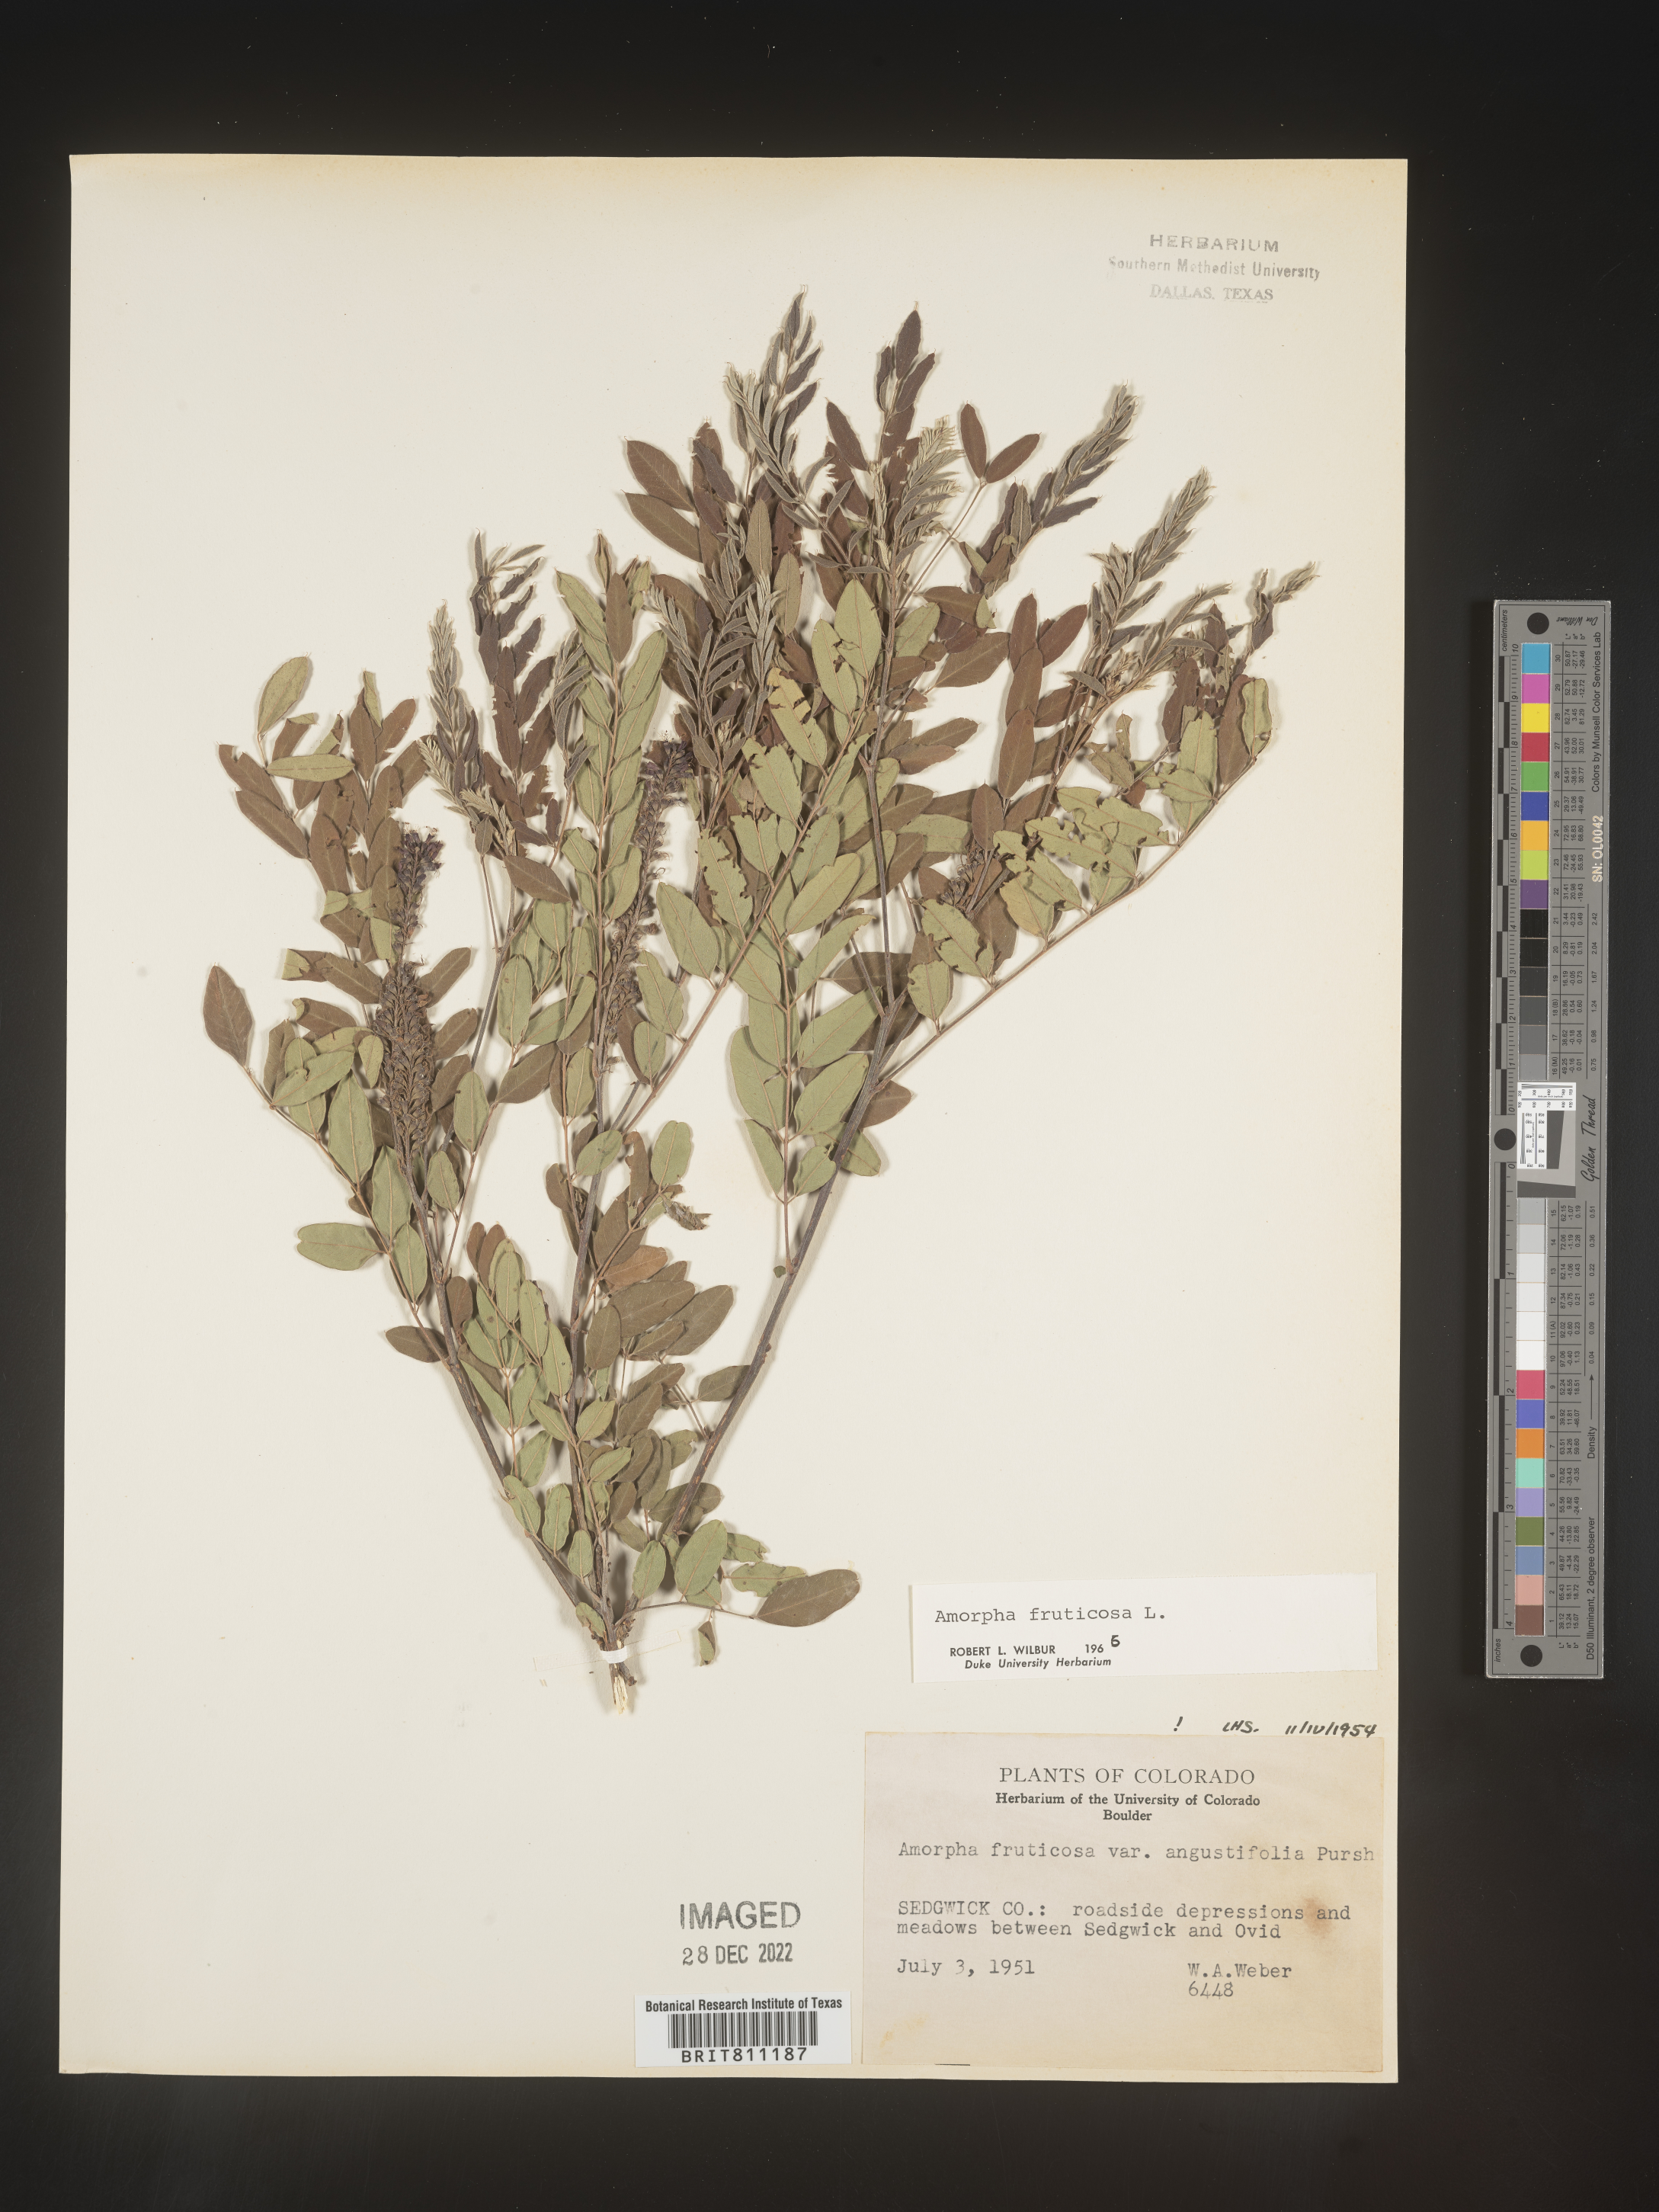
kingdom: Plantae
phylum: Tracheophyta
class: Magnoliopsida
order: Fabales
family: Fabaceae
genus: Amorpha
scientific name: Amorpha fruticosa
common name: False indigo
